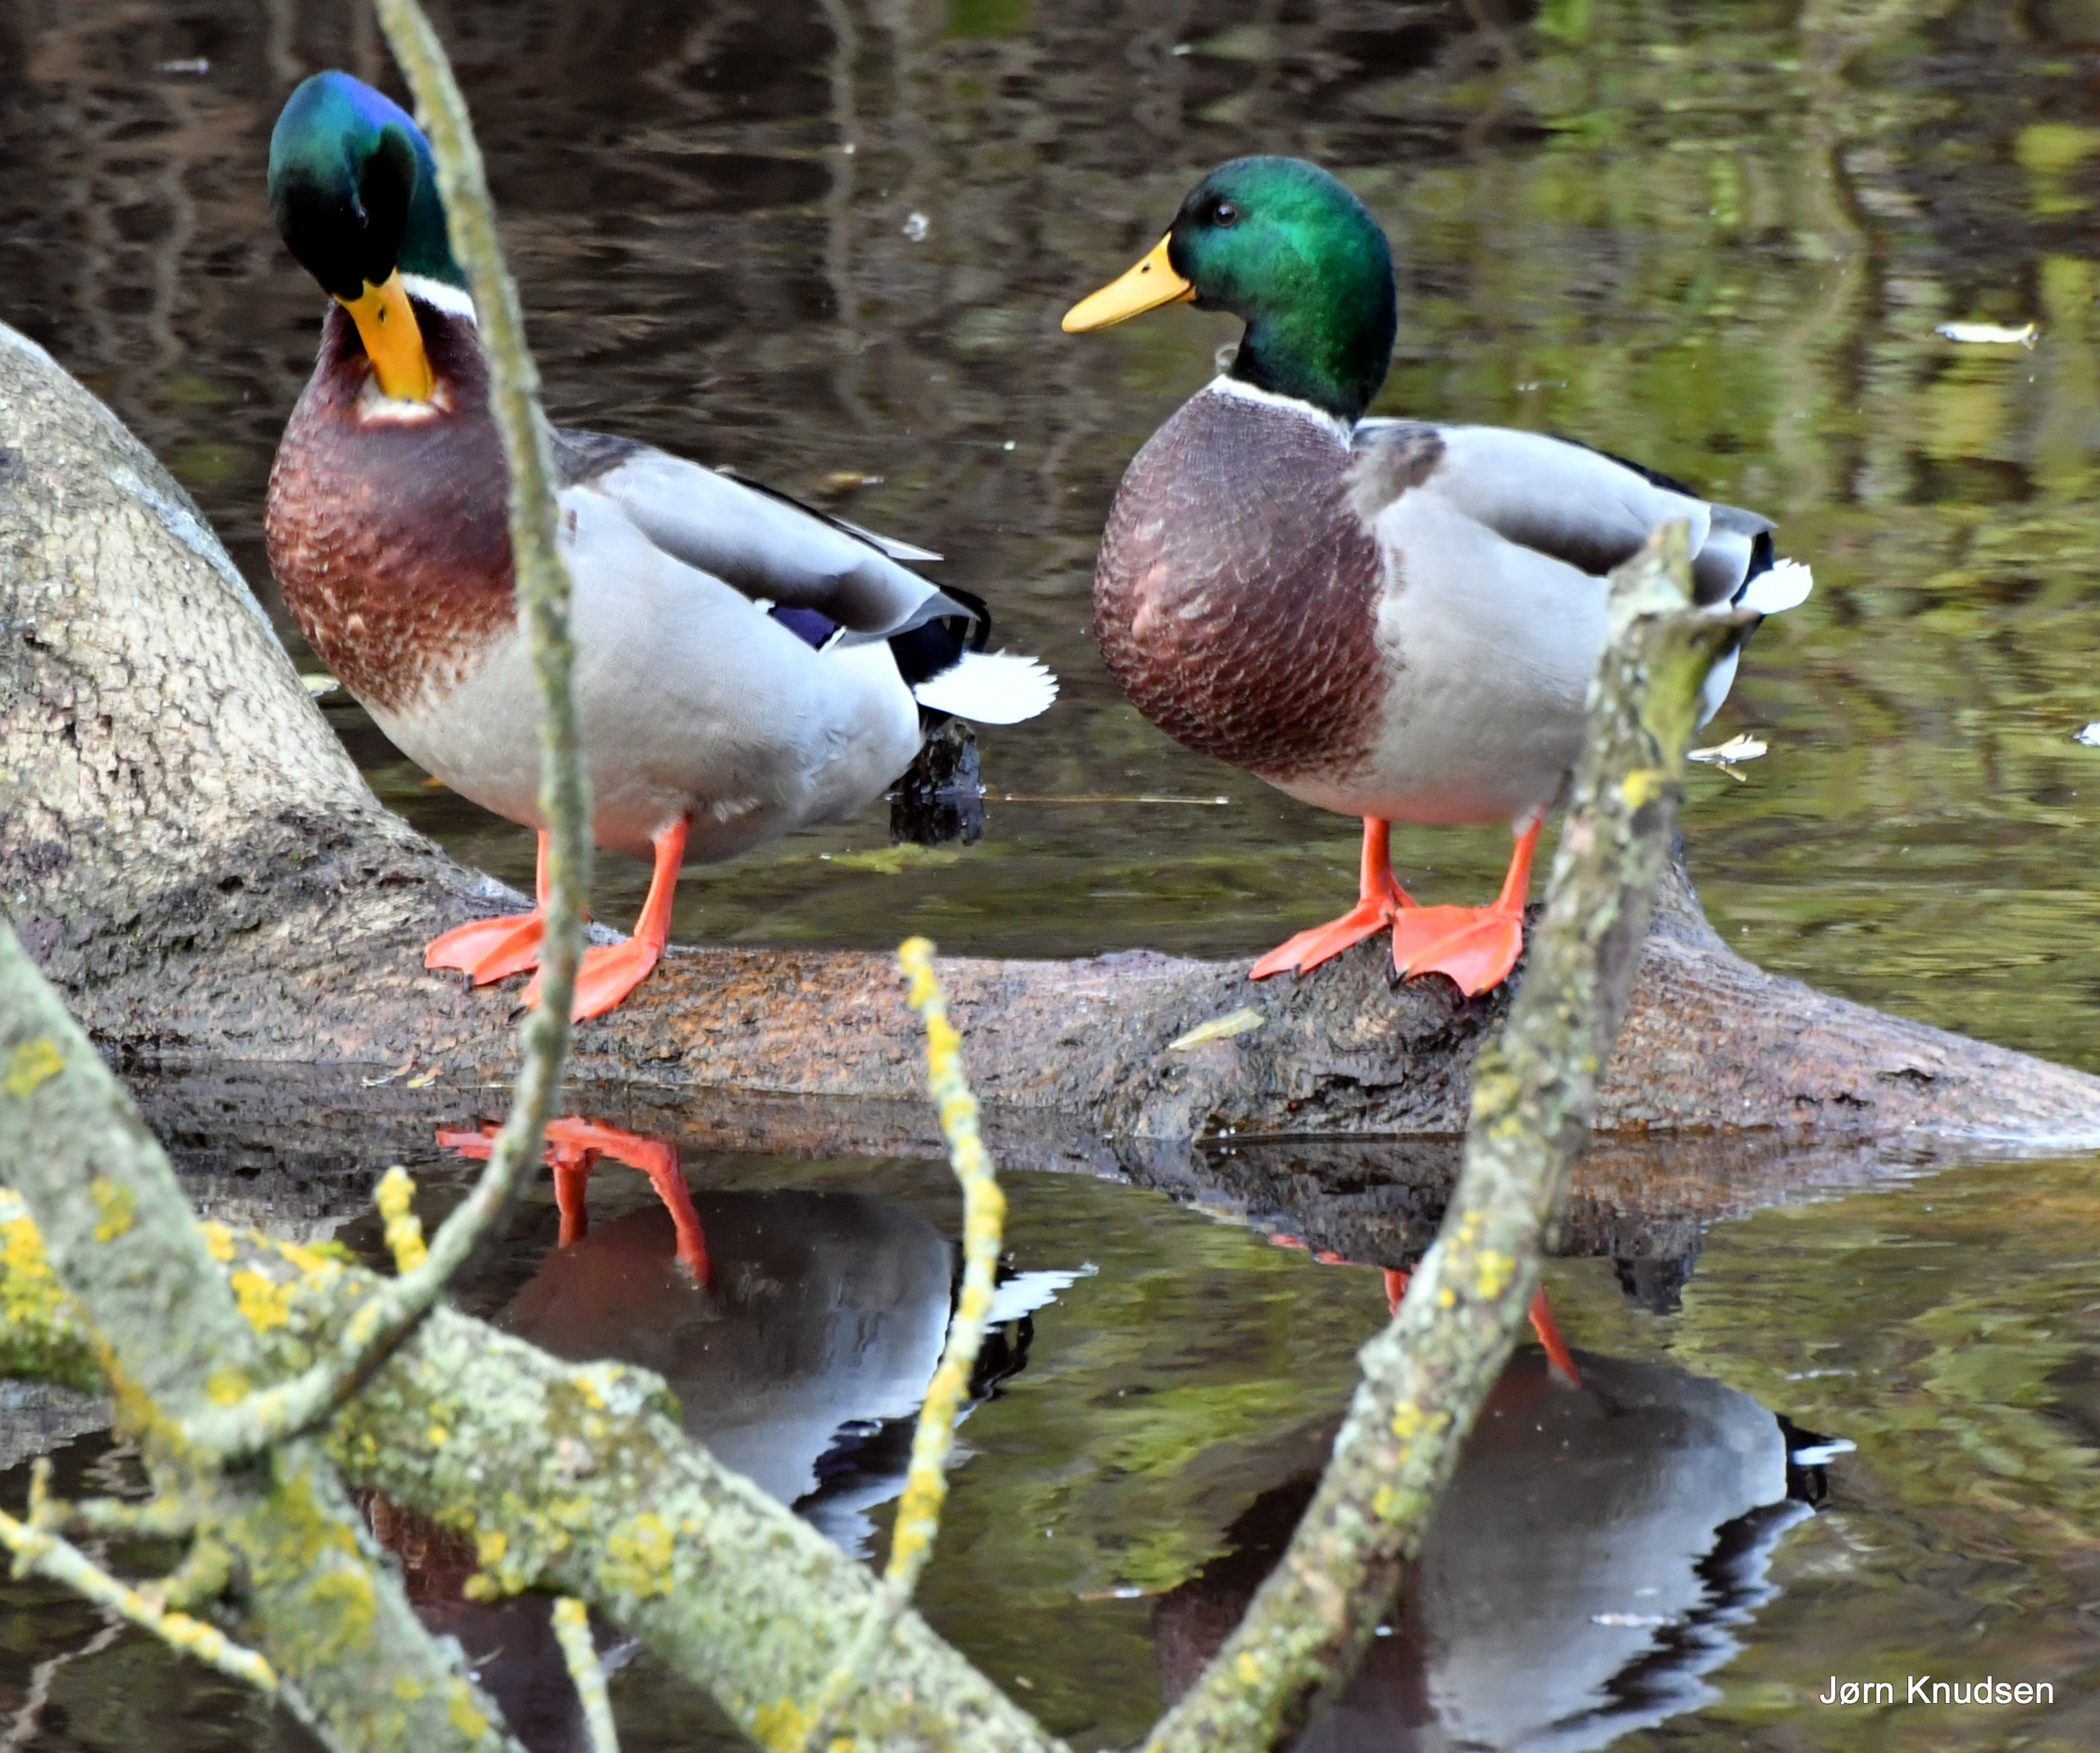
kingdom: Animalia
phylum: Chordata
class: Aves
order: Anseriformes
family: Anatidae
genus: Anas
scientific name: Anas platyrhynchos
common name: Gråand
